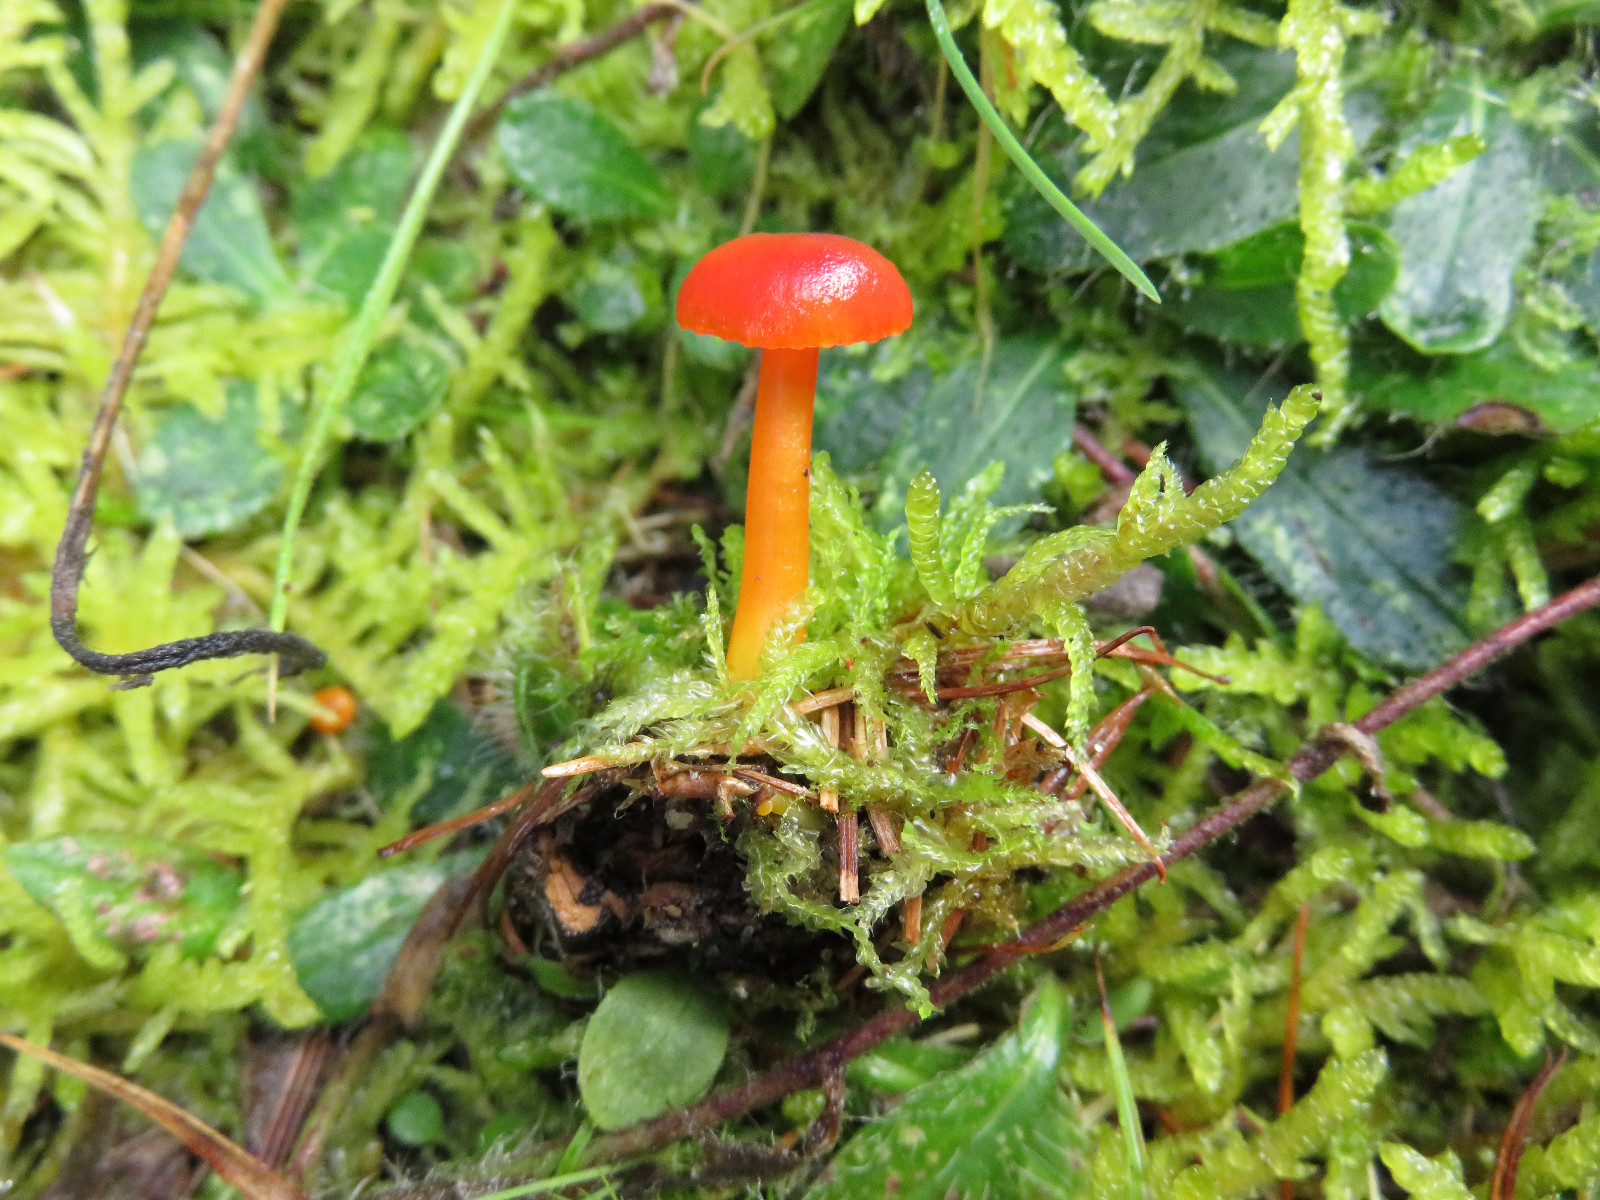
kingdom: Fungi
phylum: Basidiomycota
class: Agaricomycetes
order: Agaricales
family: Hygrophoraceae
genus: Hygrocybe
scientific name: Hygrocybe miniata
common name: mønje-vokshat
